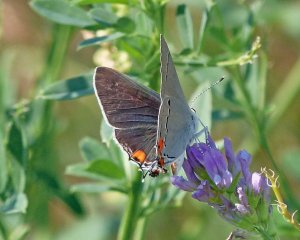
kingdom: Animalia
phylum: Arthropoda
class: Insecta
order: Lepidoptera
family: Lycaenidae
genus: Strymon
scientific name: Strymon melinus
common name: Gray Hairstreak
